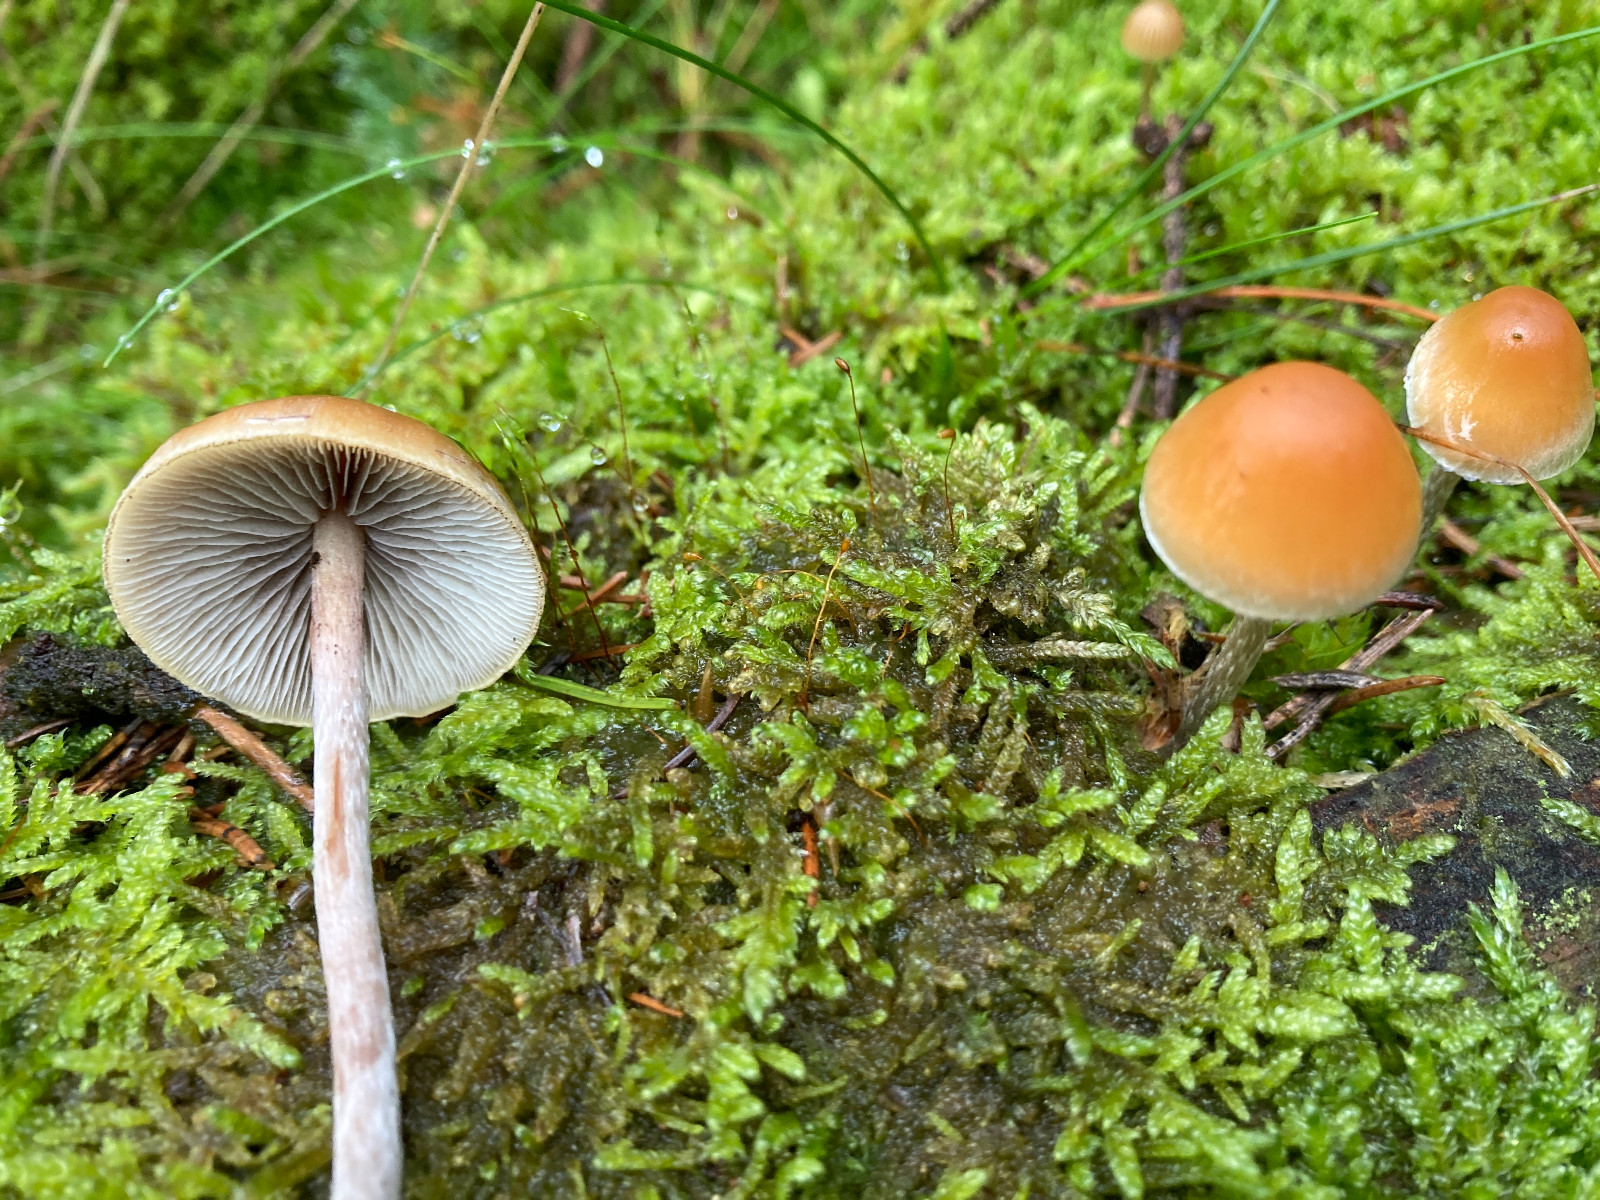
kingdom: Fungi
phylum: Basidiomycota
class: Agaricomycetes
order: Agaricales
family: Strophariaceae
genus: Hypholoma
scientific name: Hypholoma marginatum
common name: enlig svovlhat
